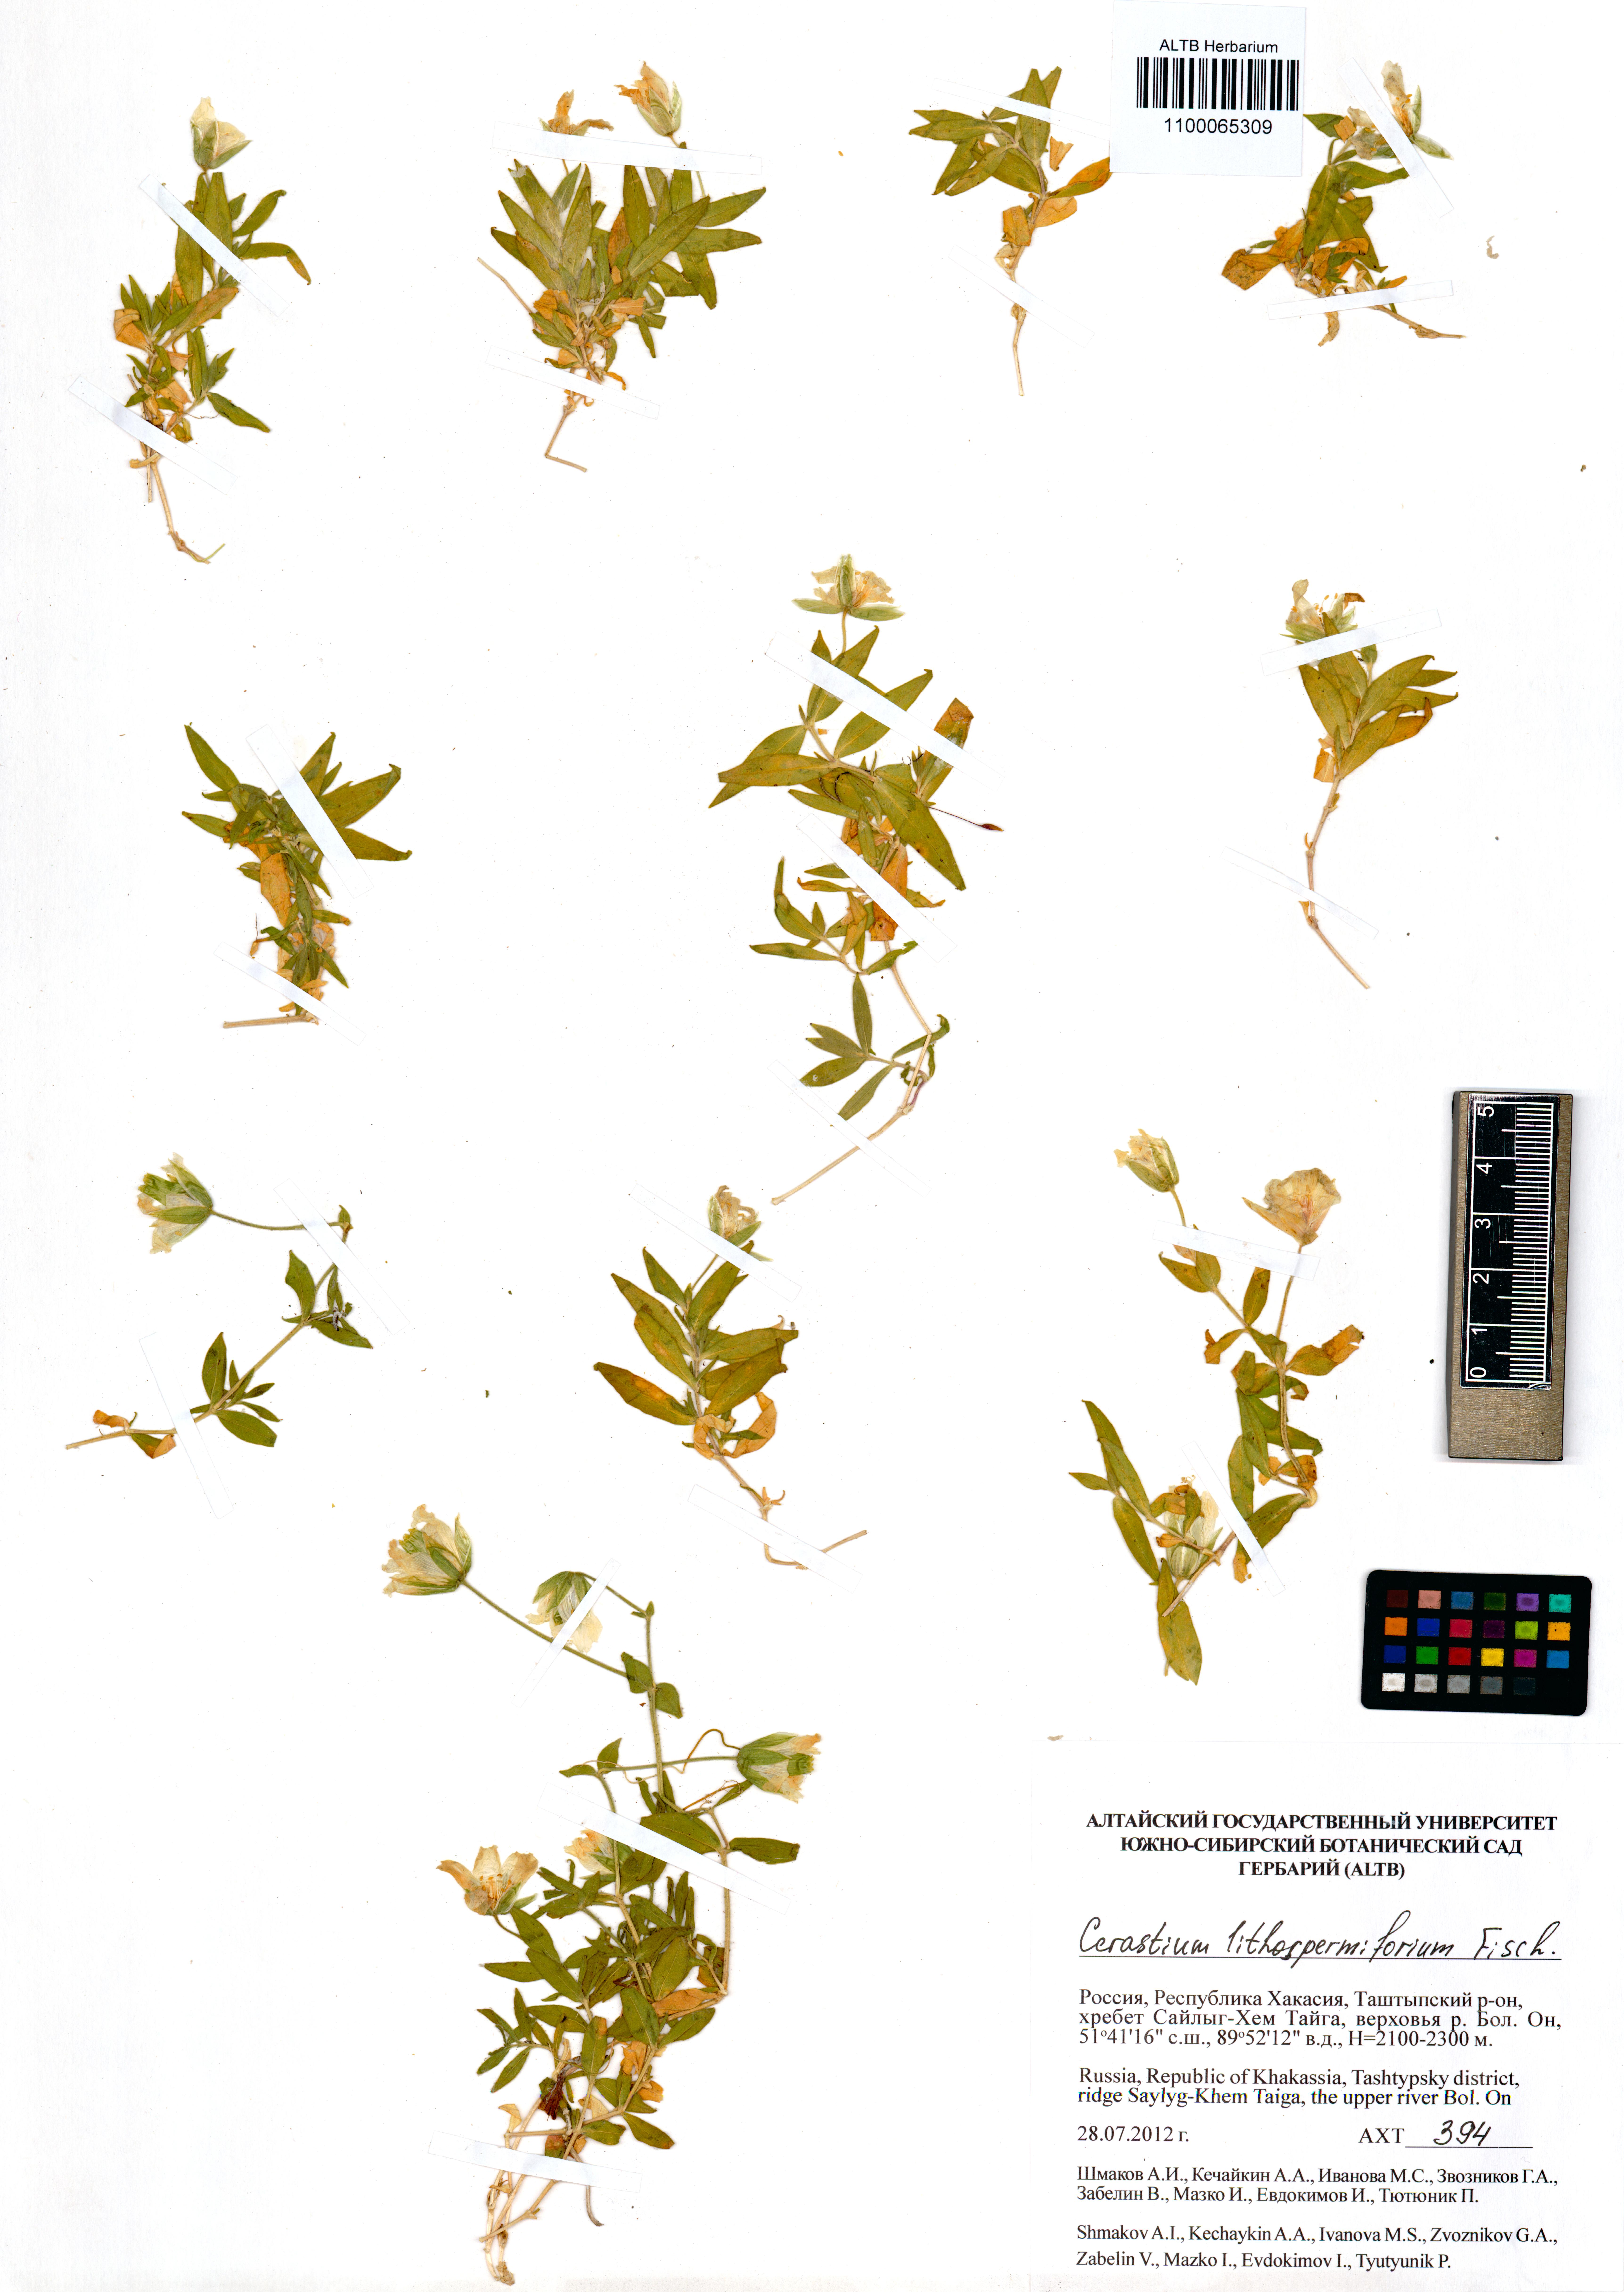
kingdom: Plantae
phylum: Tracheophyta
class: Magnoliopsida
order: Caryophyllales
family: Caryophyllaceae
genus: Cerastium
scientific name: Cerastium lithospermifolium
